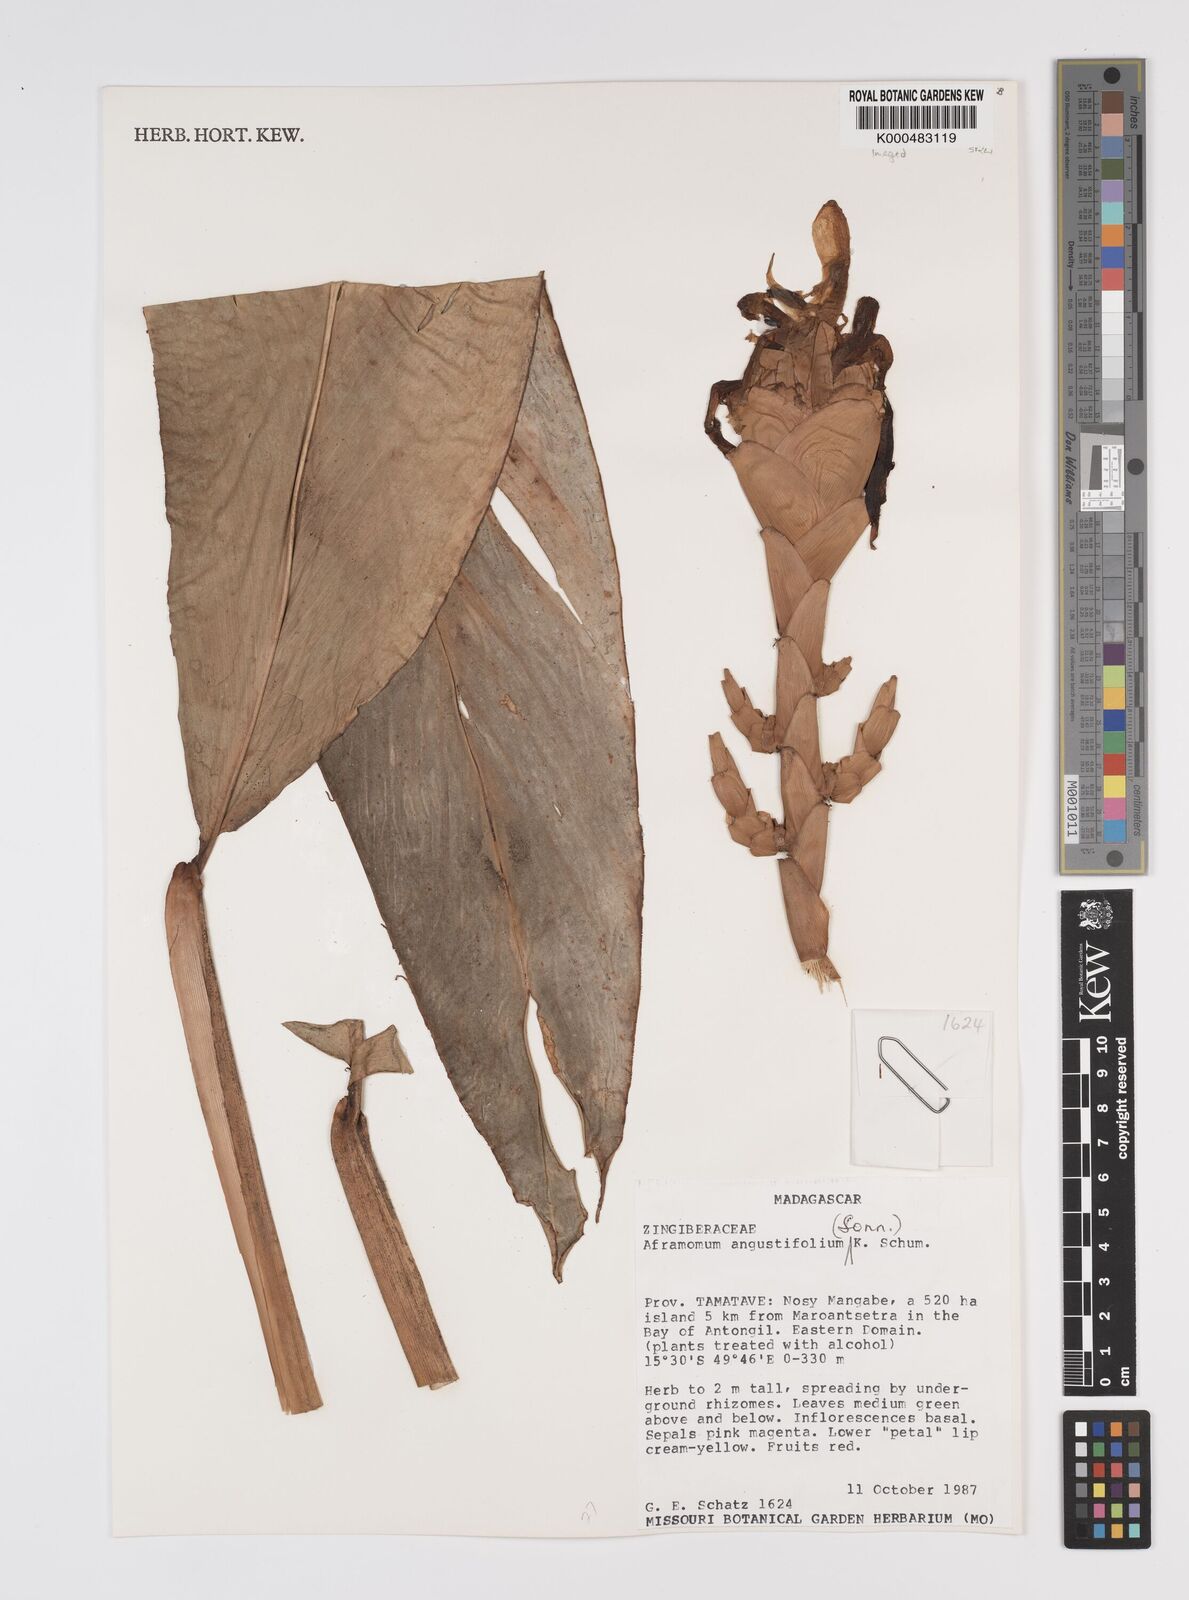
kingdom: Plantae
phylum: Tracheophyta
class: Liliopsida
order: Zingiberales
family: Zingiberaceae
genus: Aframomum
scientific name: Aframomum angustifolium
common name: Guinea grains
